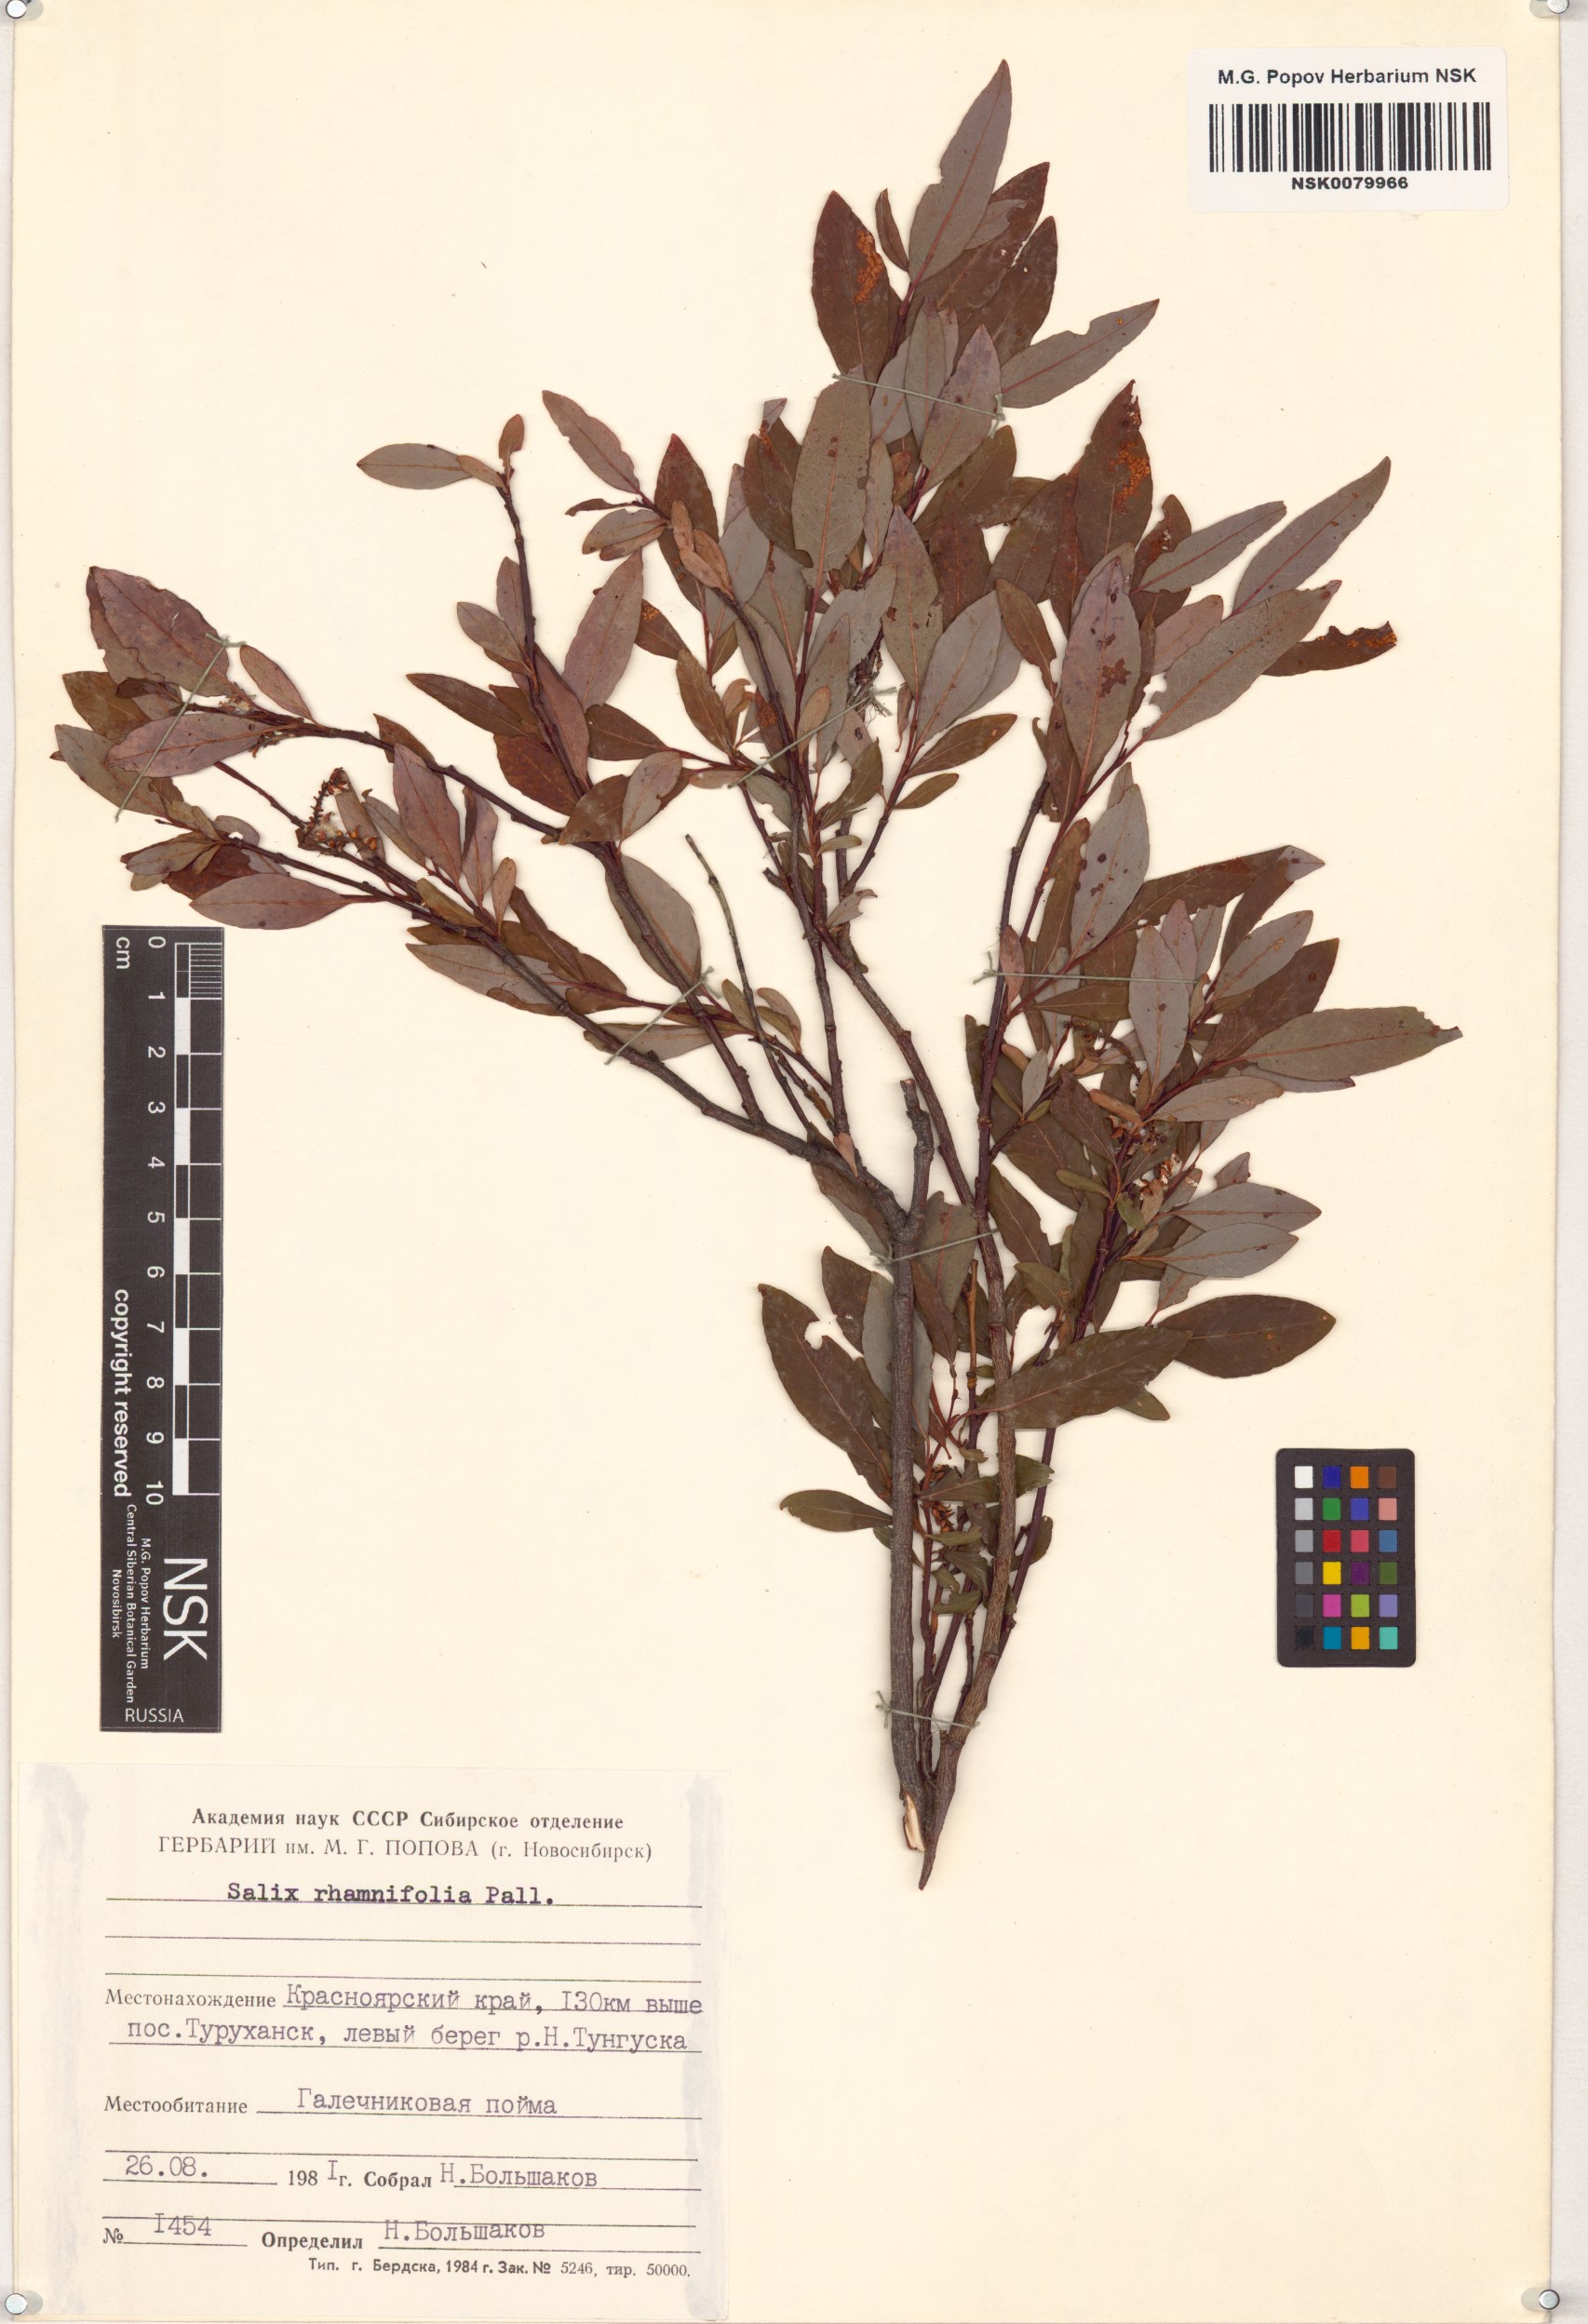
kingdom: Plantae
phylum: Tracheophyta
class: Magnoliopsida
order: Malpighiales
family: Salicaceae
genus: Salix
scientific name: Salix rhamnifolia
